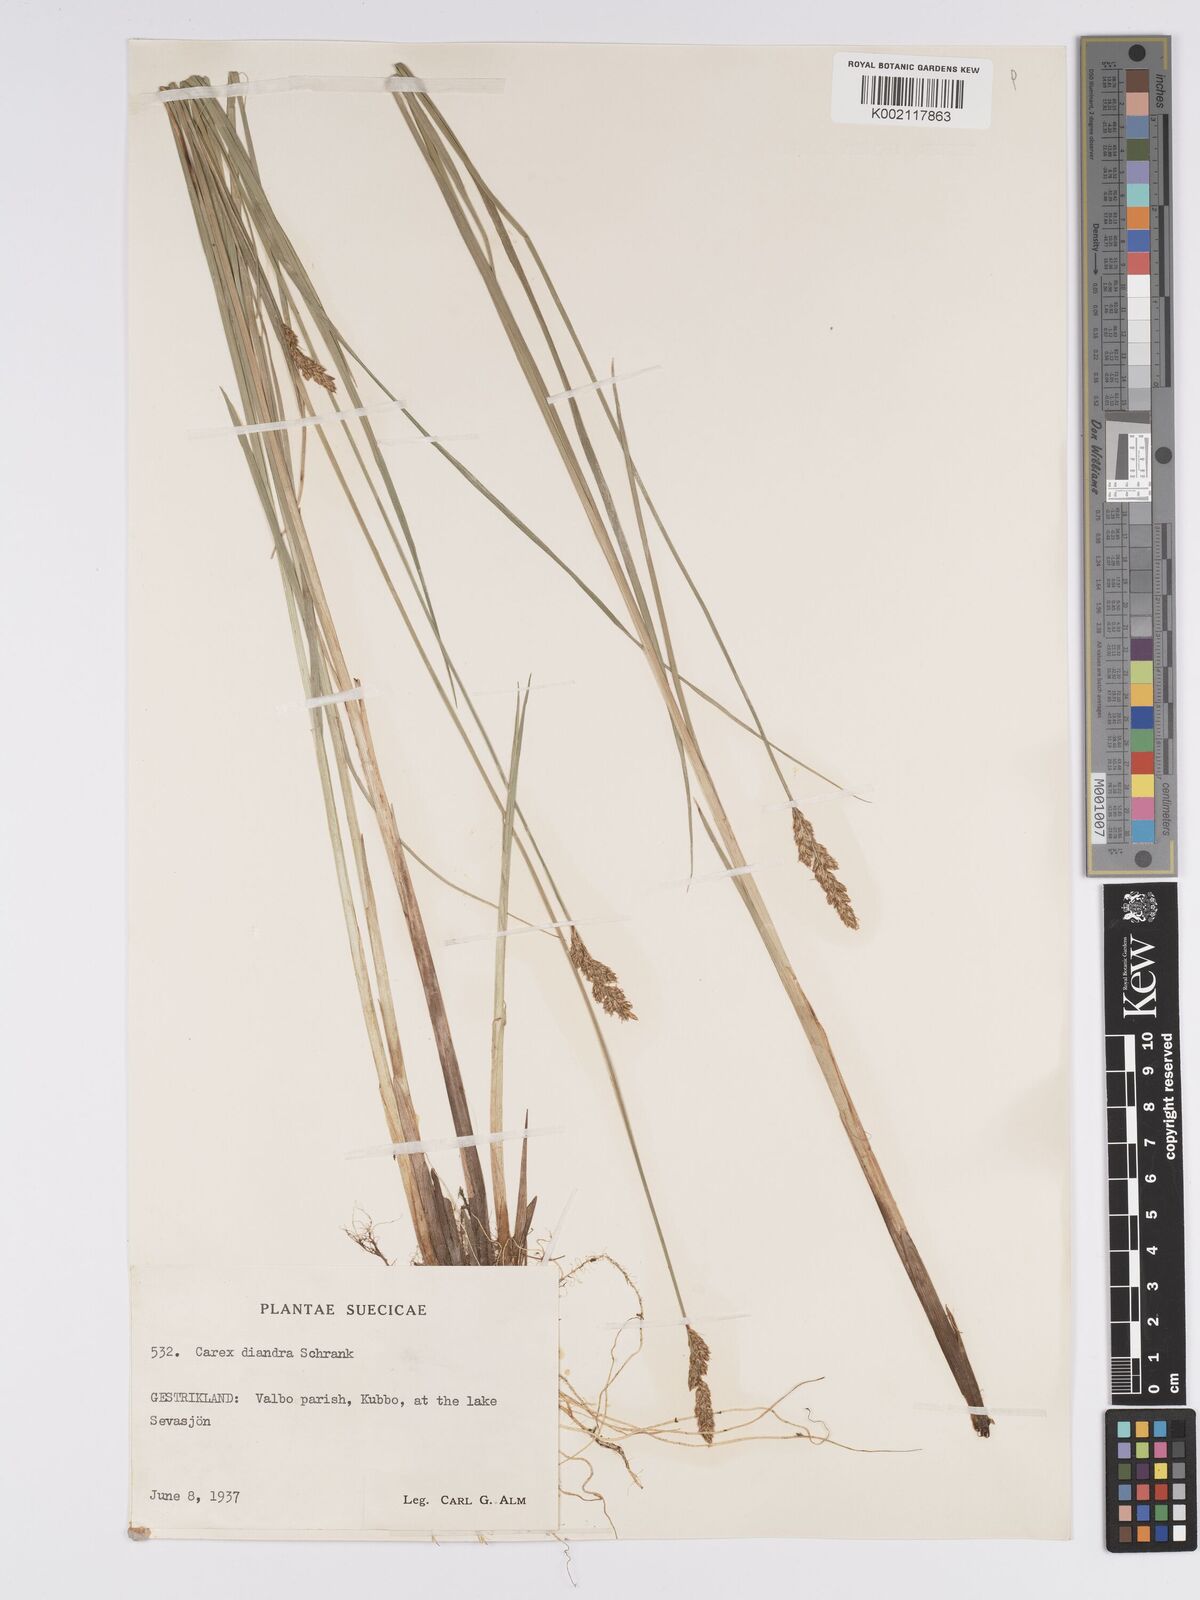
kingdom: Plantae
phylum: Tracheophyta
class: Liliopsida
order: Poales
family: Cyperaceae
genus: Carex
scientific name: Carex diandra
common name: Lesser tussock-sedge
